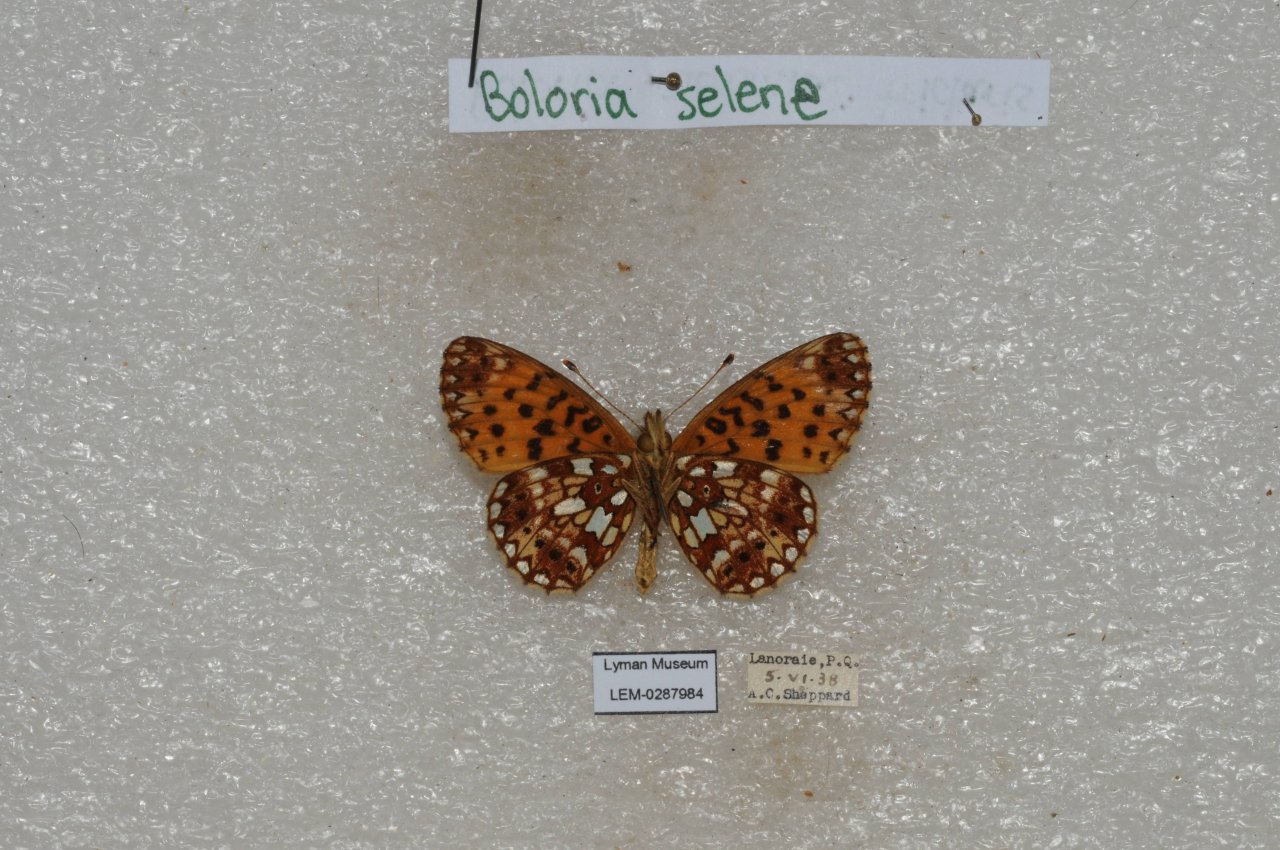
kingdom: Animalia
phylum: Arthropoda
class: Insecta
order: Lepidoptera
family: Nymphalidae
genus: Boloria
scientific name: Boloria selene
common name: Silver-bordered Fritillary
